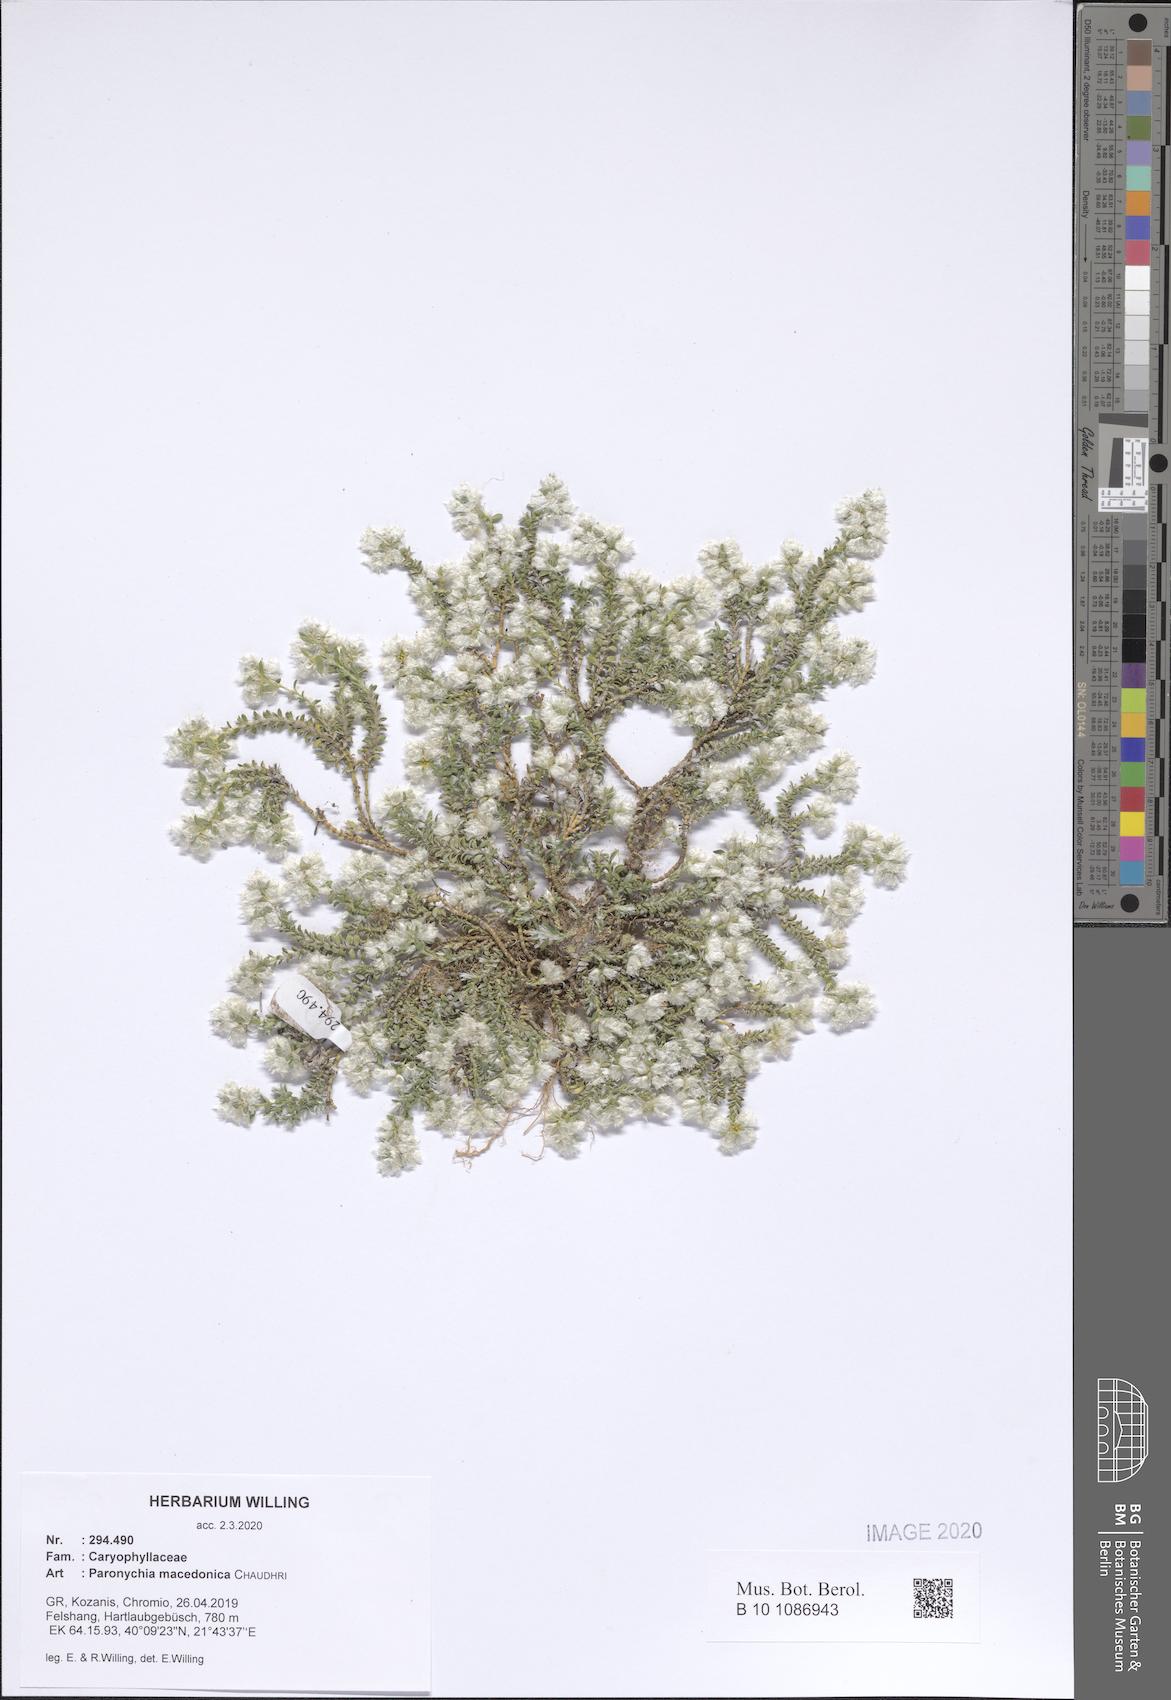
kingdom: Plantae
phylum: Tracheophyta
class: Magnoliopsida
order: Caryophyllales
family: Caryophyllaceae
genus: Paronychia
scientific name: Paronychia macedonica
